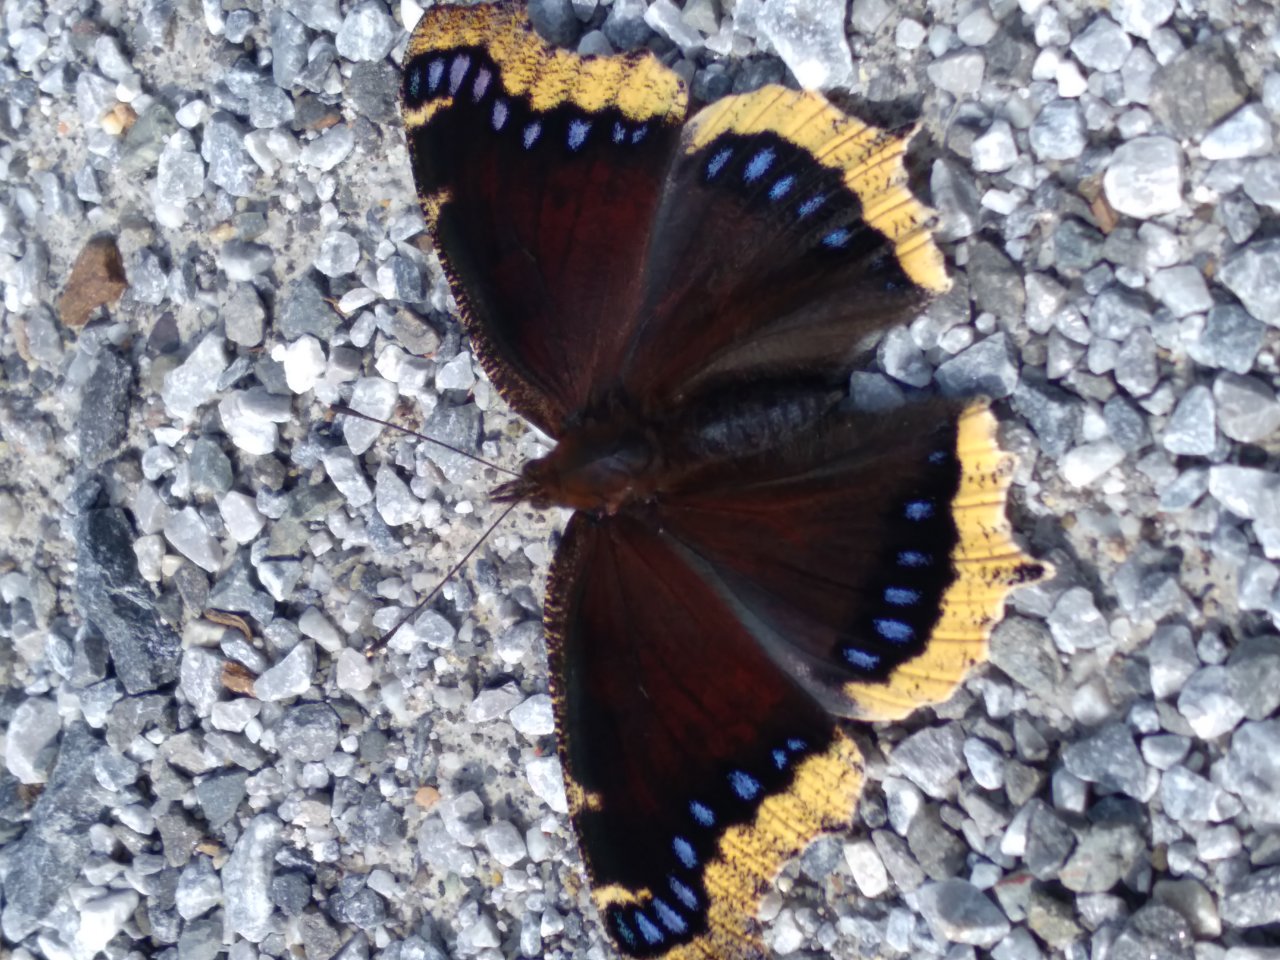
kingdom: Animalia
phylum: Arthropoda
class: Insecta
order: Lepidoptera
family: Nymphalidae
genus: Nymphalis
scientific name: Nymphalis antiopa
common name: Mourning Cloak
